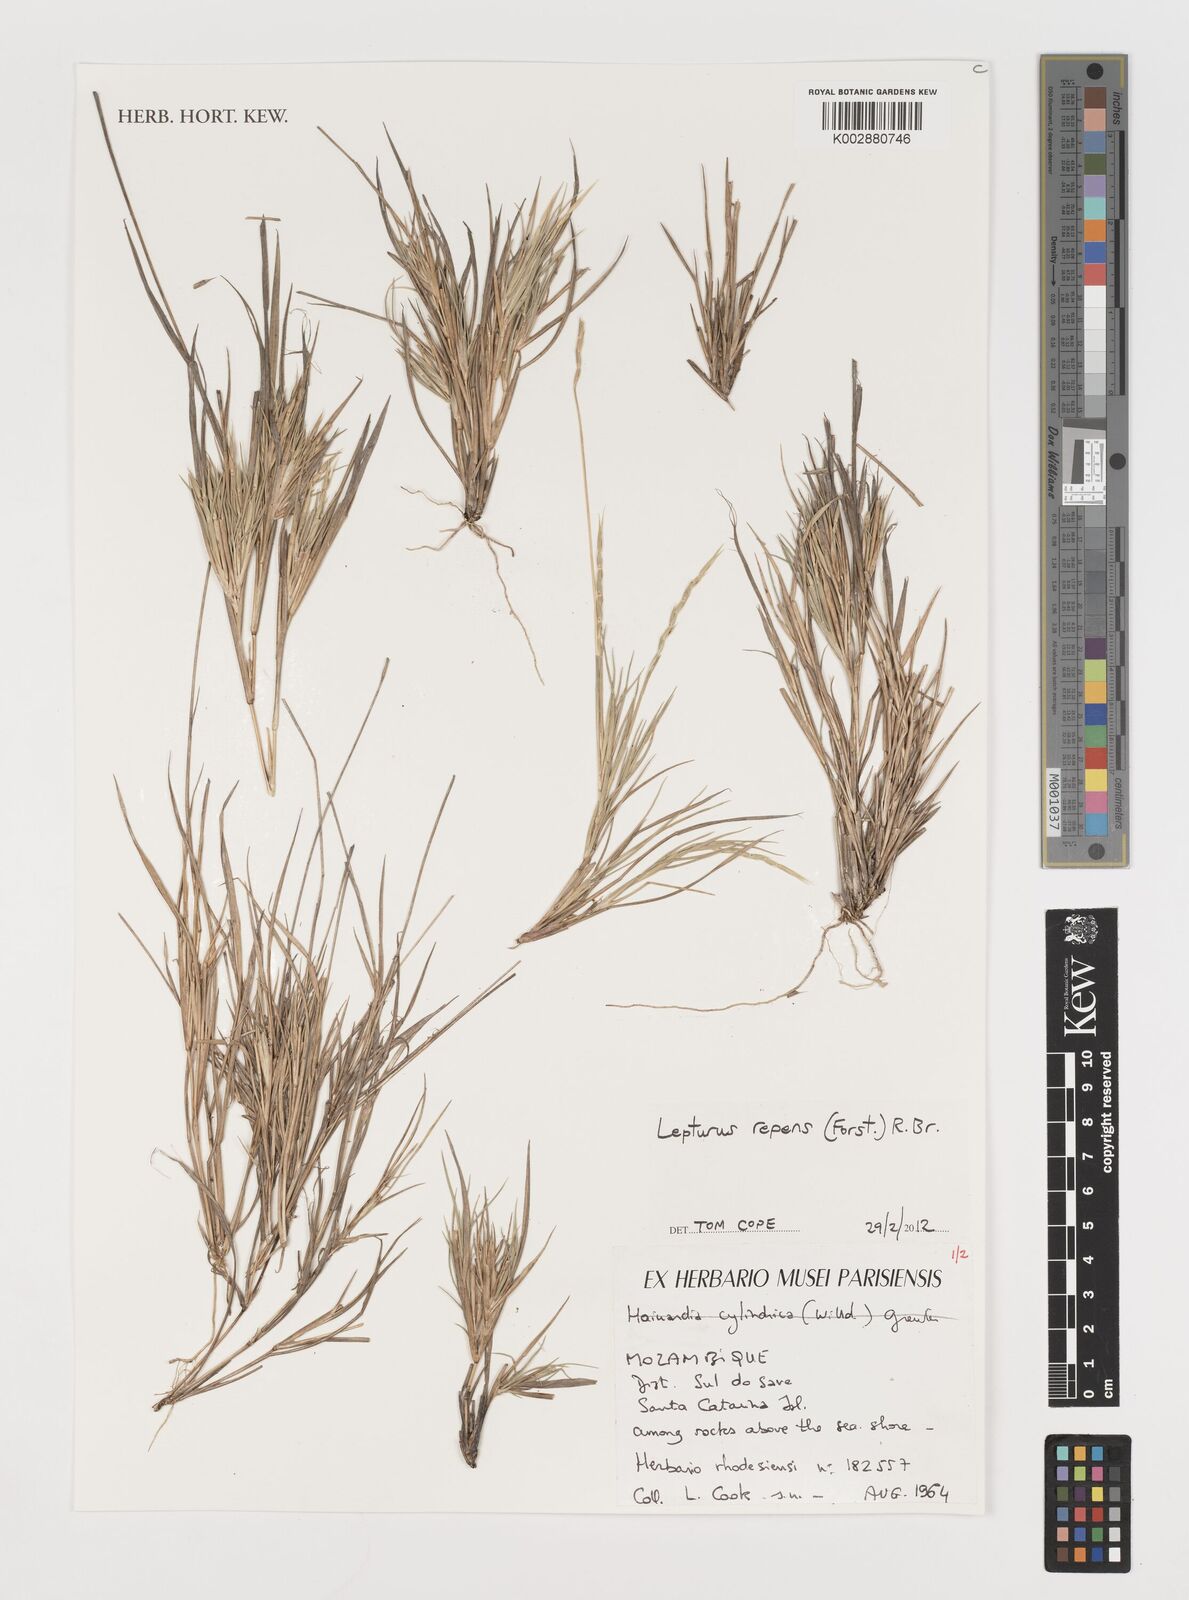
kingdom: Plantae
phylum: Tracheophyta
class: Liliopsida
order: Poales
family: Poaceae
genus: Lepturus
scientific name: Lepturus repens
